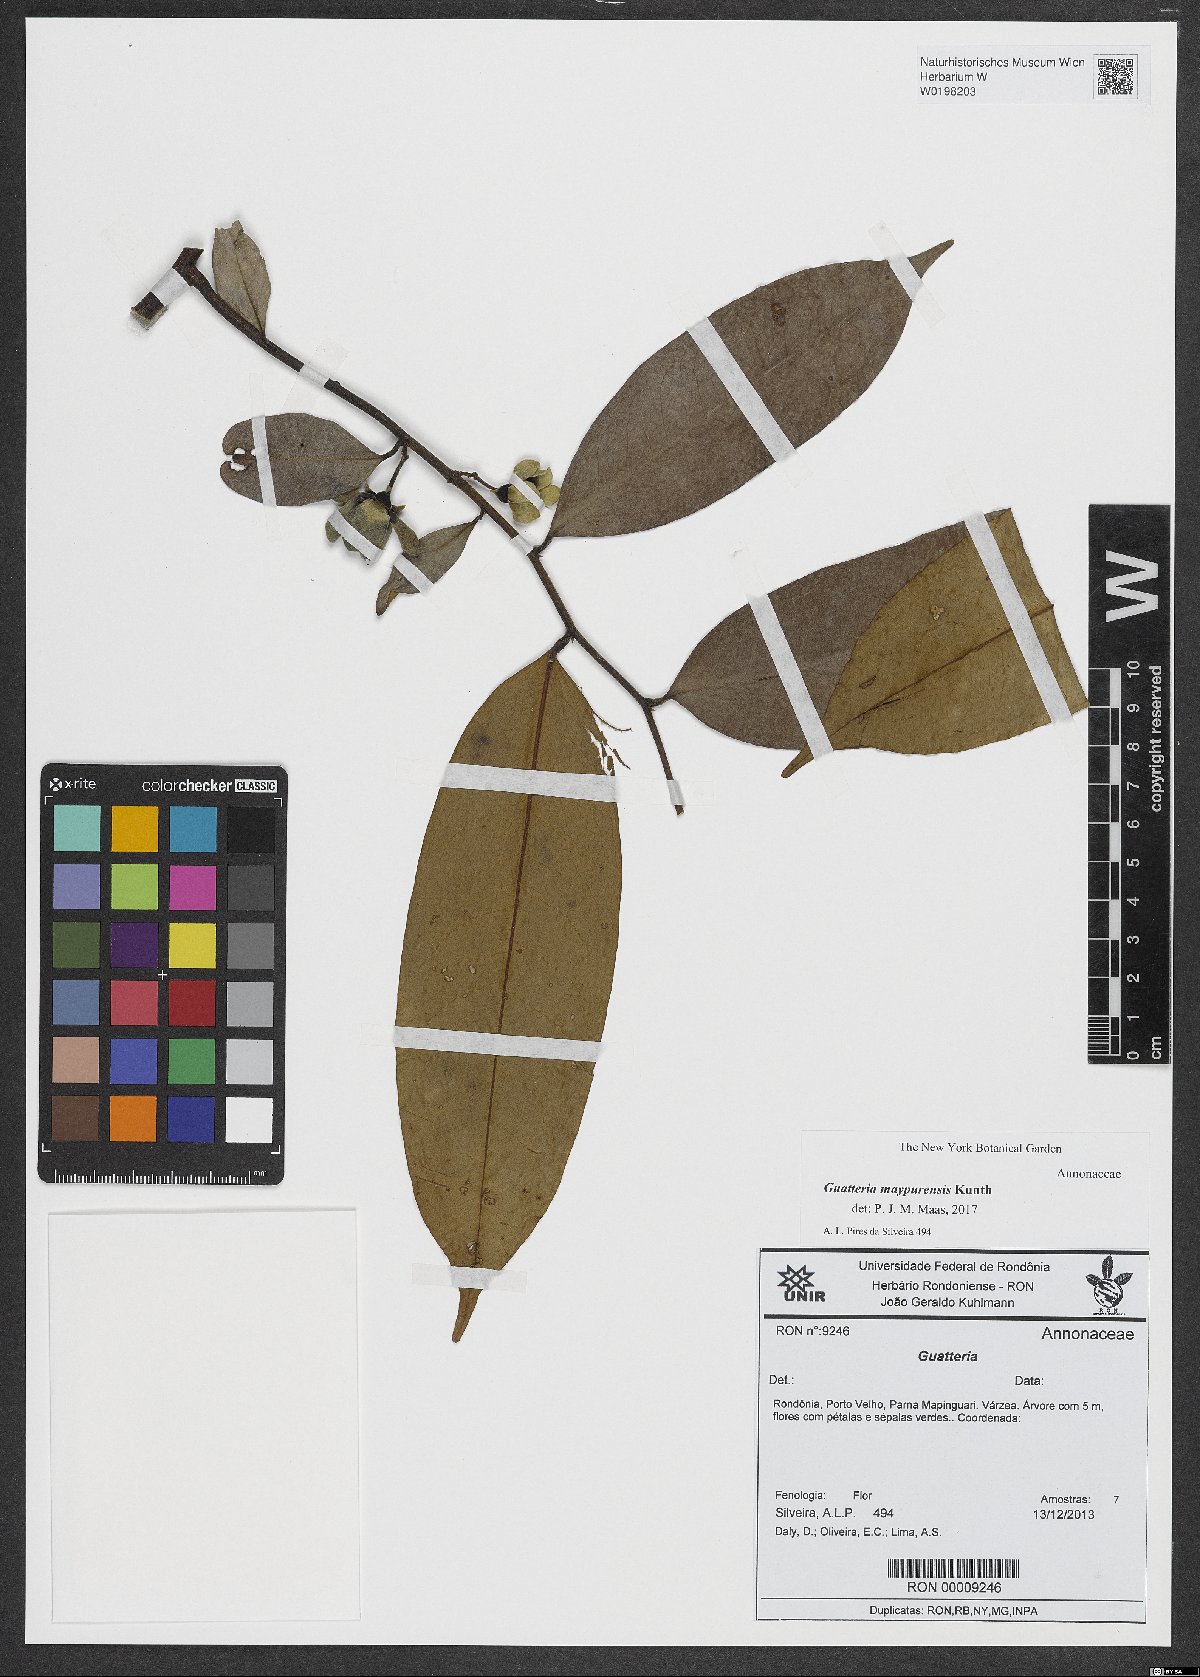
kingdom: Plantae
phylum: Tracheophyta
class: Magnoliopsida
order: Magnoliales
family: Annonaceae
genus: Guatteria
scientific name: Guatteria maypurensis
